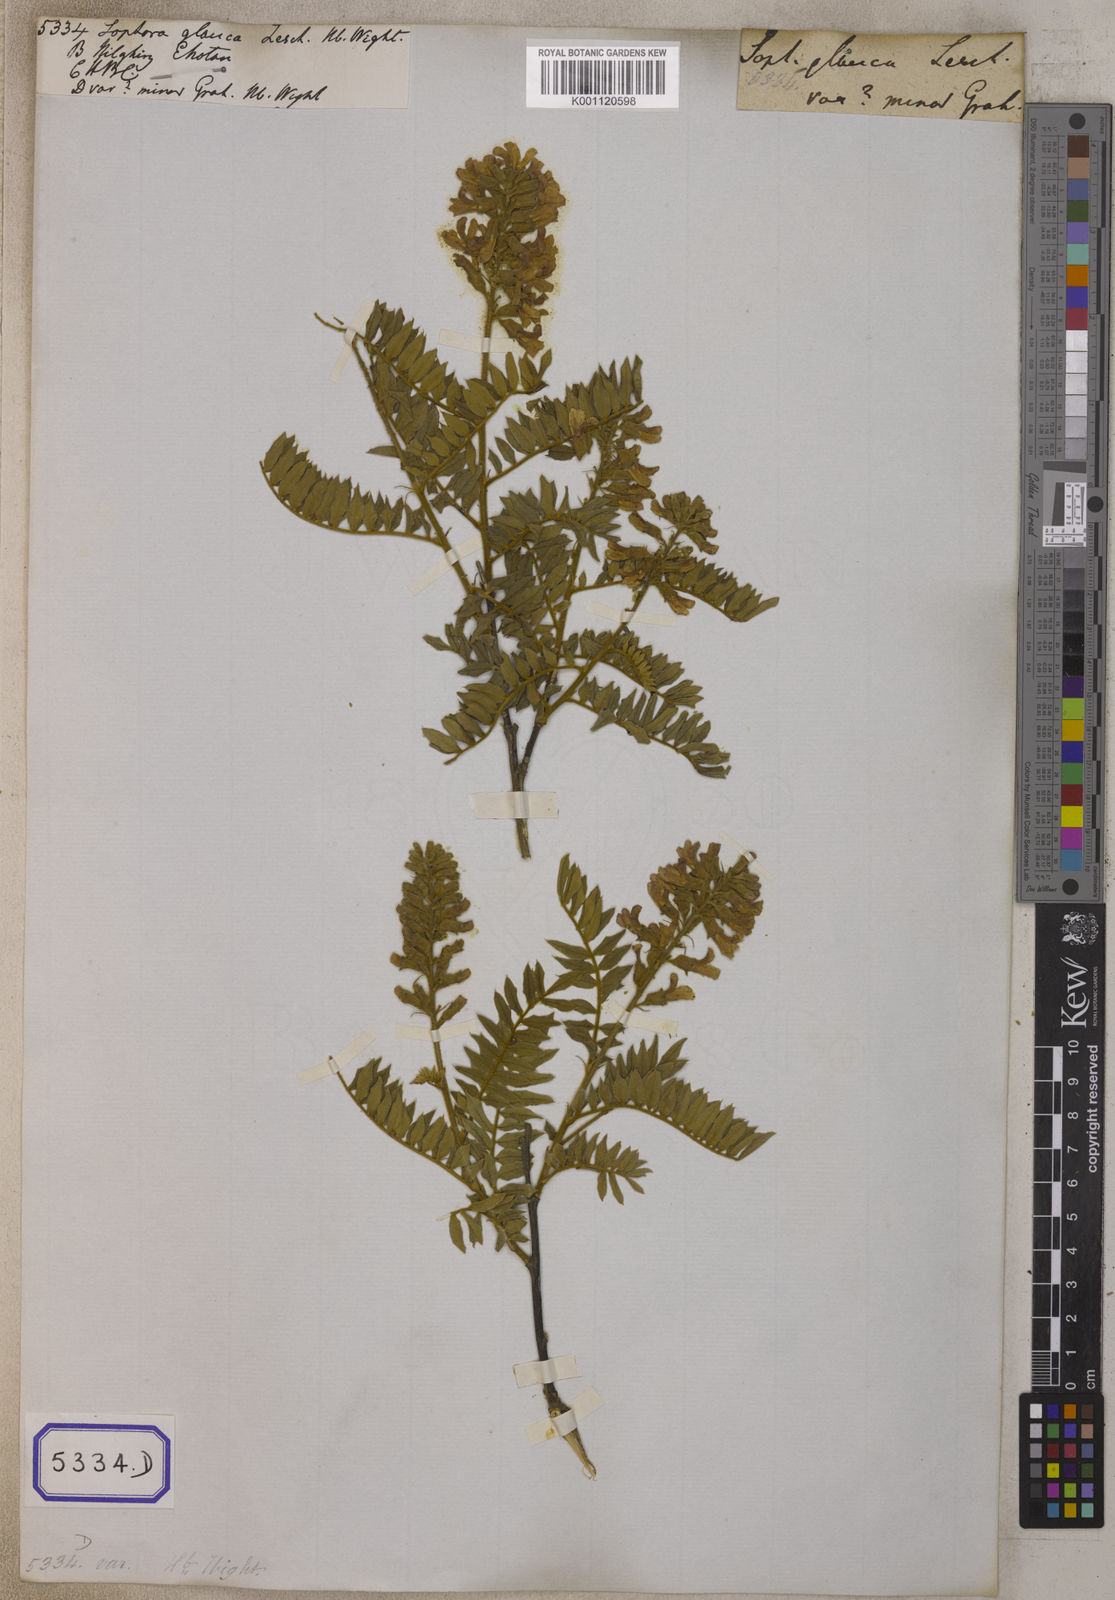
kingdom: Plantae
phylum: Tracheophyta
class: Magnoliopsida
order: Fabales
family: Fabaceae
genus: Baptisia
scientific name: Baptisia alba
